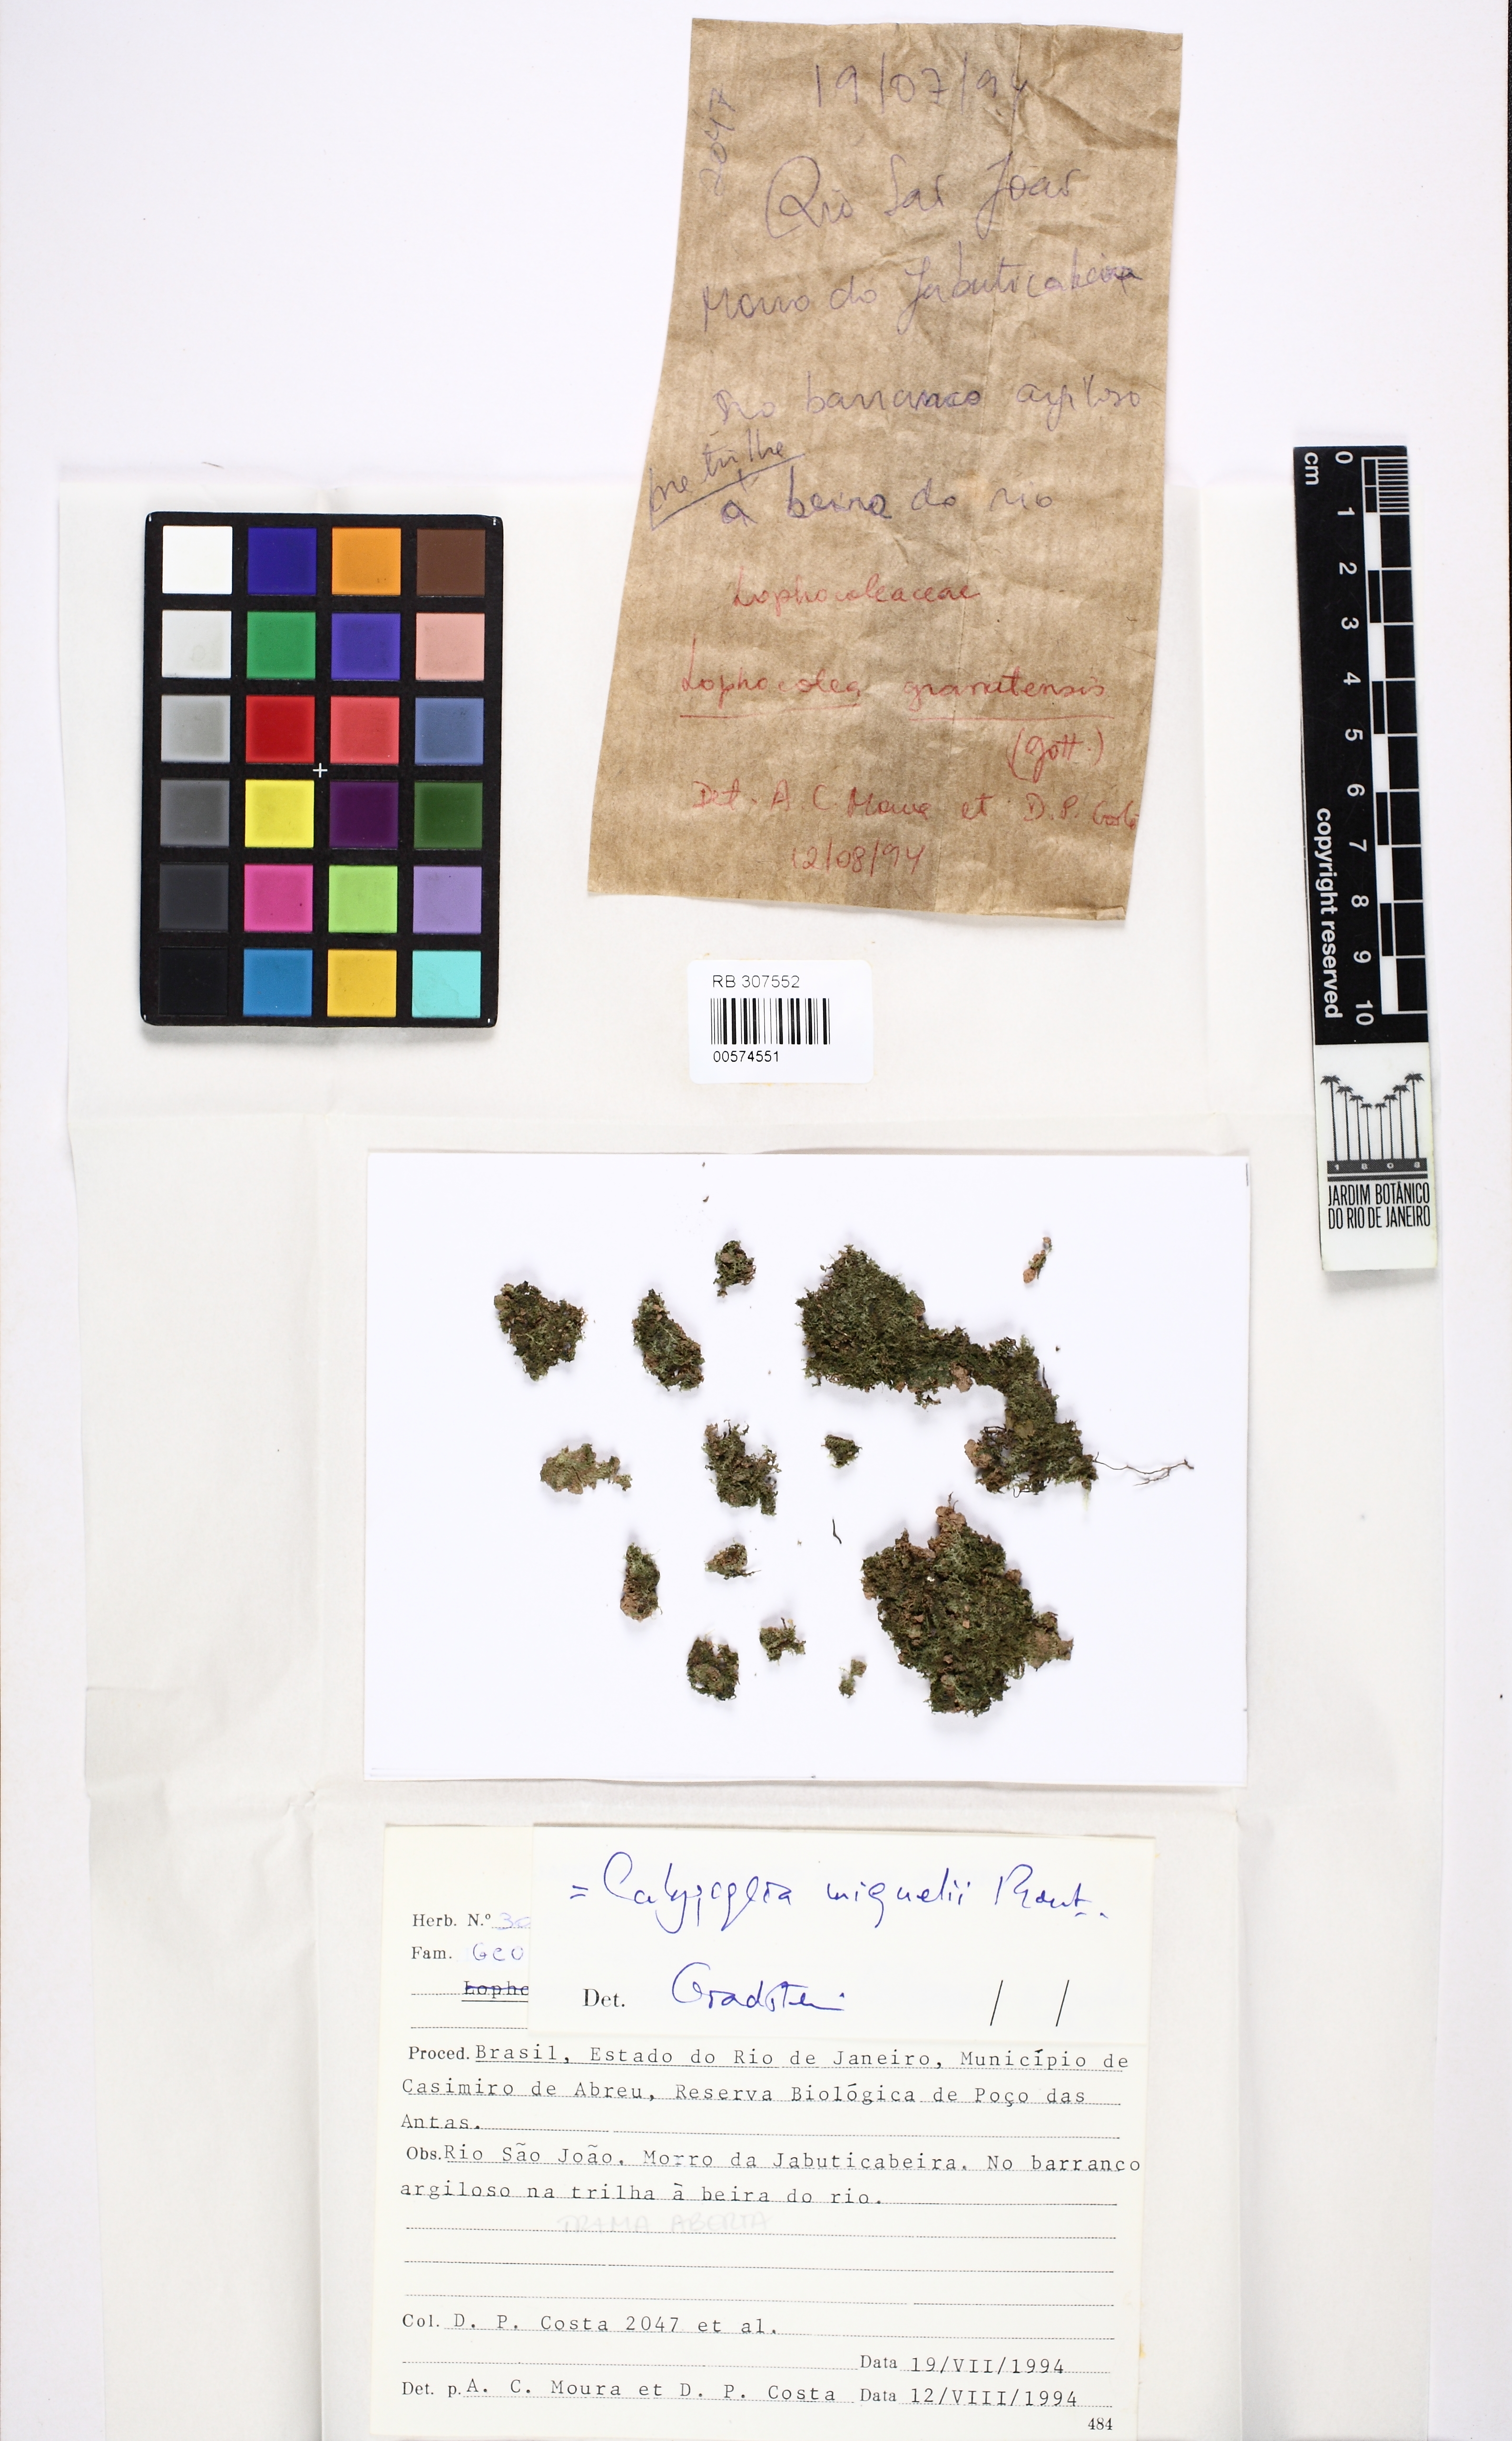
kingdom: Plantae
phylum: Marchantiophyta
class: Jungermanniopsida
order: Jungermanniales
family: Calypogeiaceae
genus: Calypogeia
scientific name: Calypogeia miquelii
